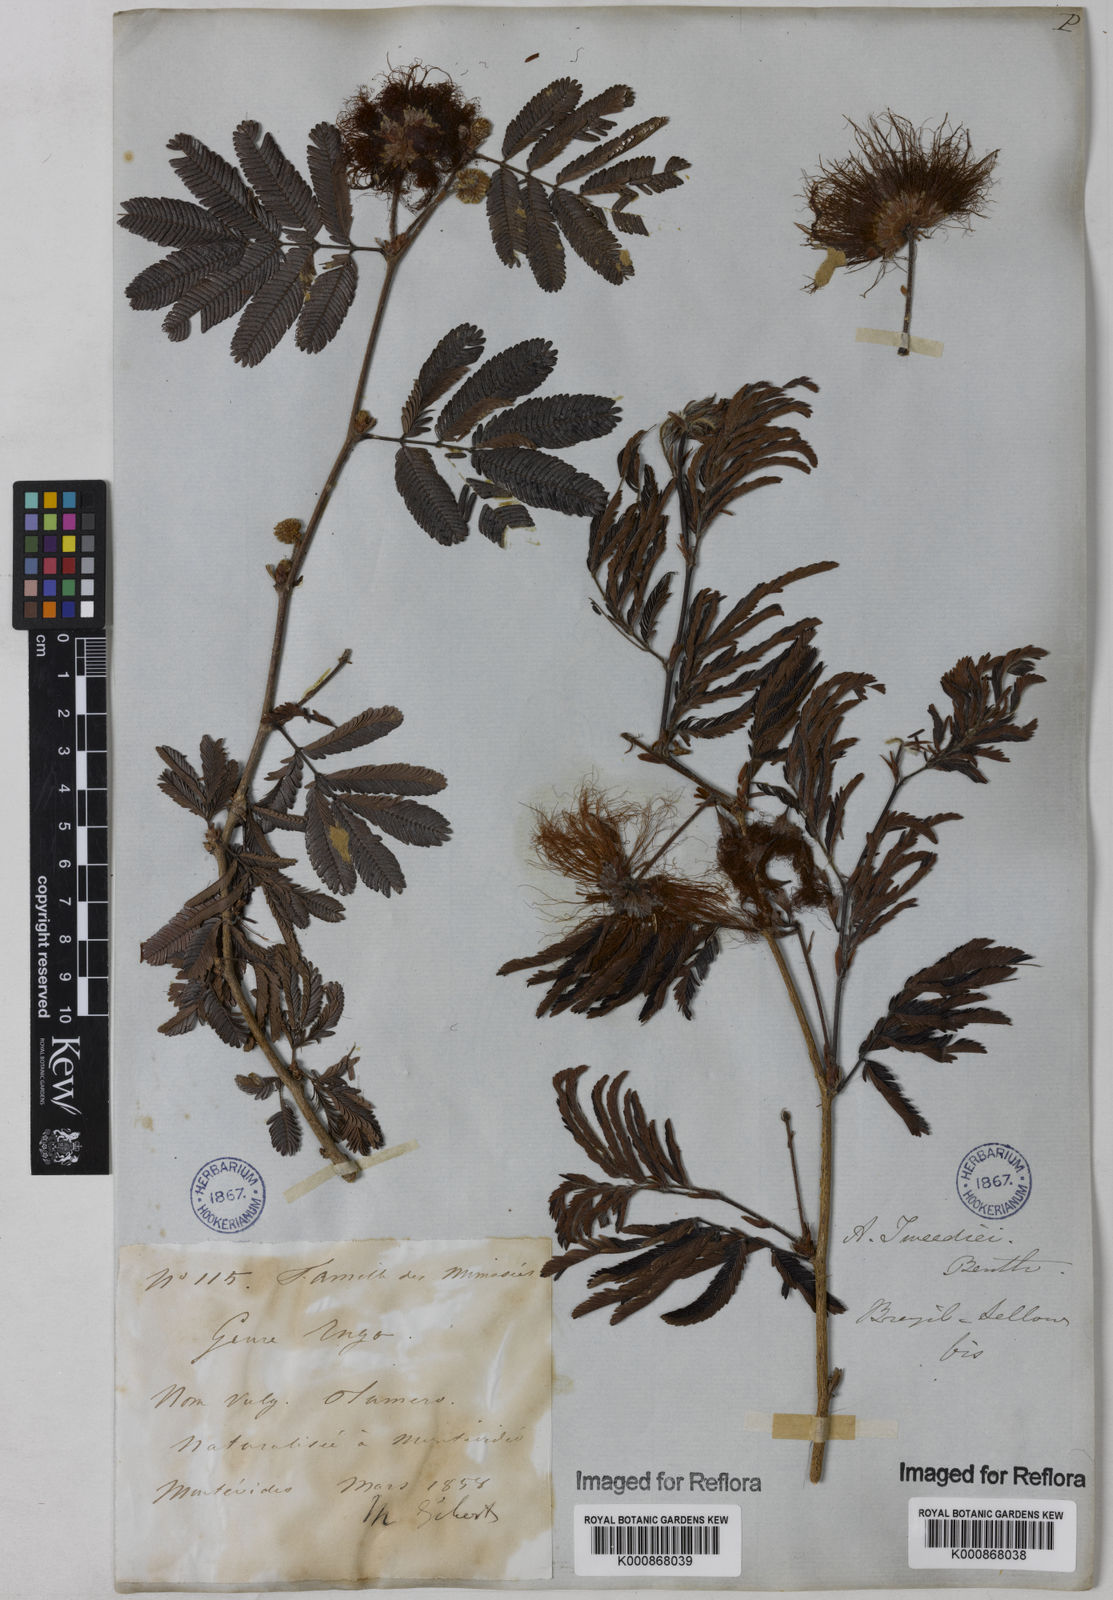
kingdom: Plantae
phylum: Tracheophyta
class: Magnoliopsida
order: Fabales
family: Fabaceae
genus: Calliandra
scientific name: Calliandra tweediei
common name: Mexican flamebush
